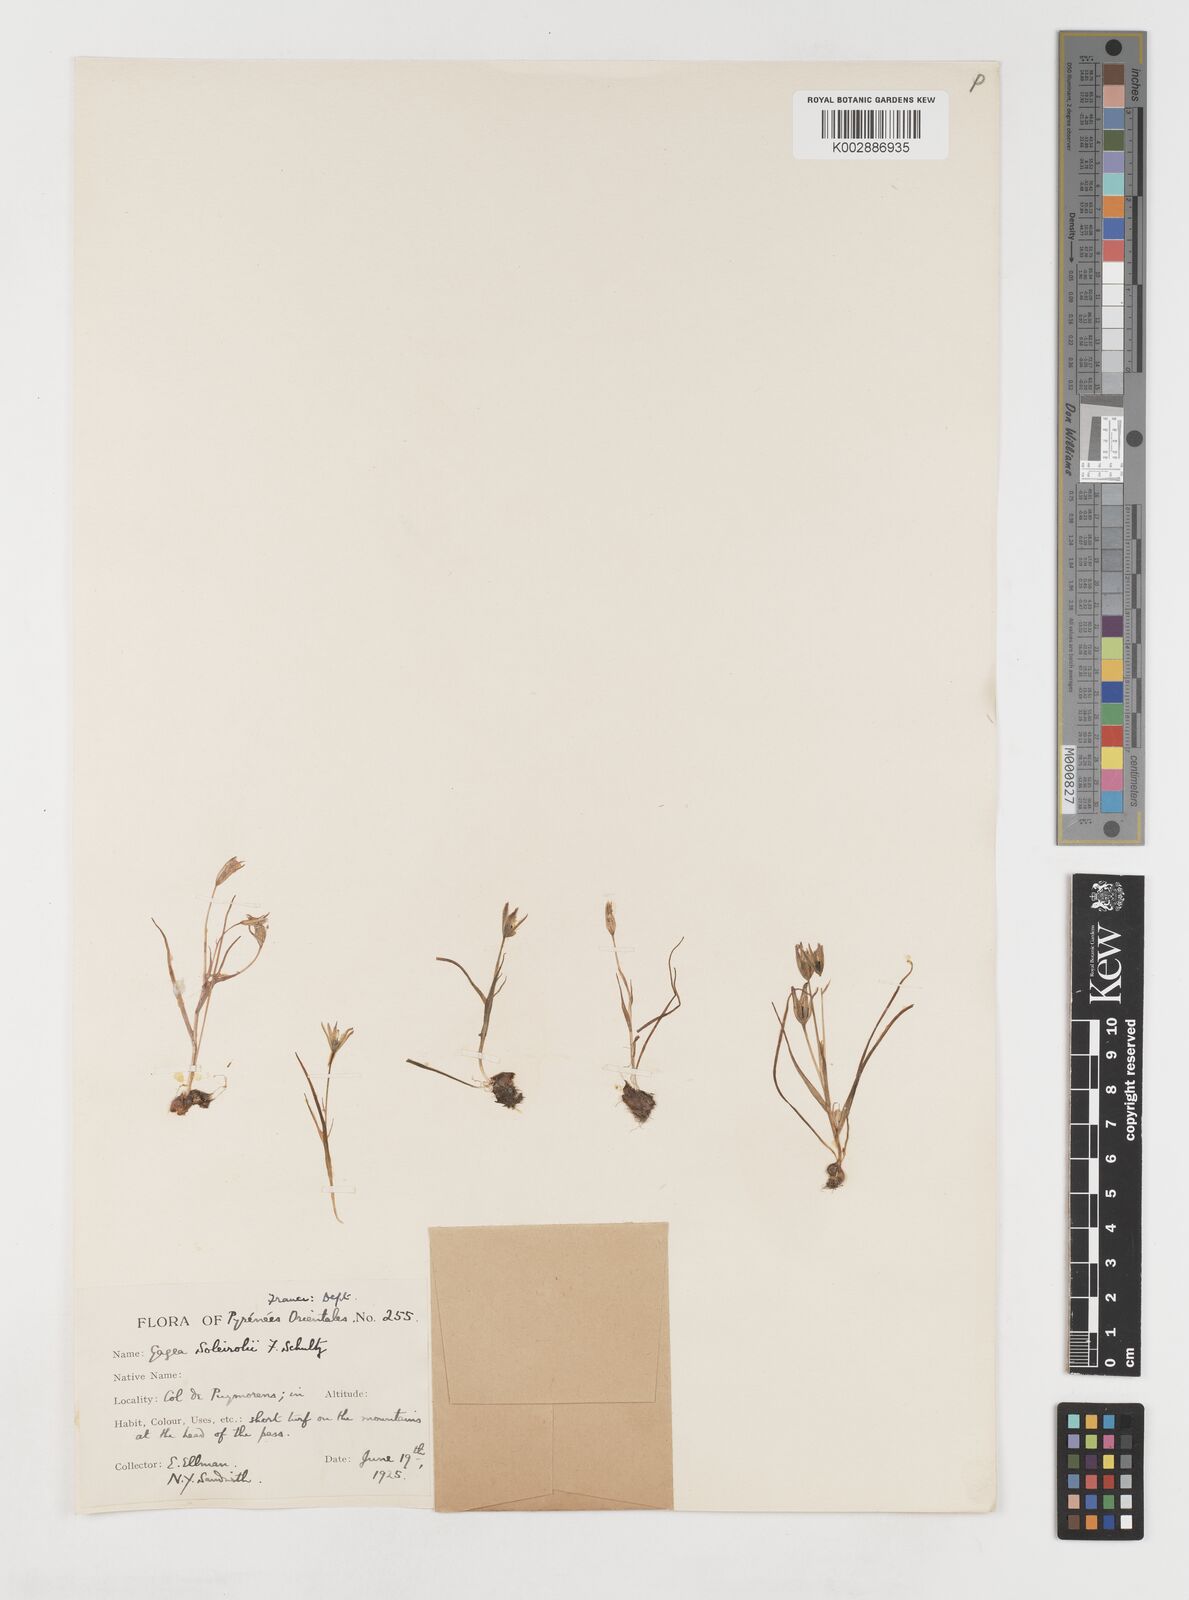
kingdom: Plantae
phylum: Tracheophyta
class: Liliopsida
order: Liliales
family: Liliaceae
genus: Gagea
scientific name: Gagea soleirolii
